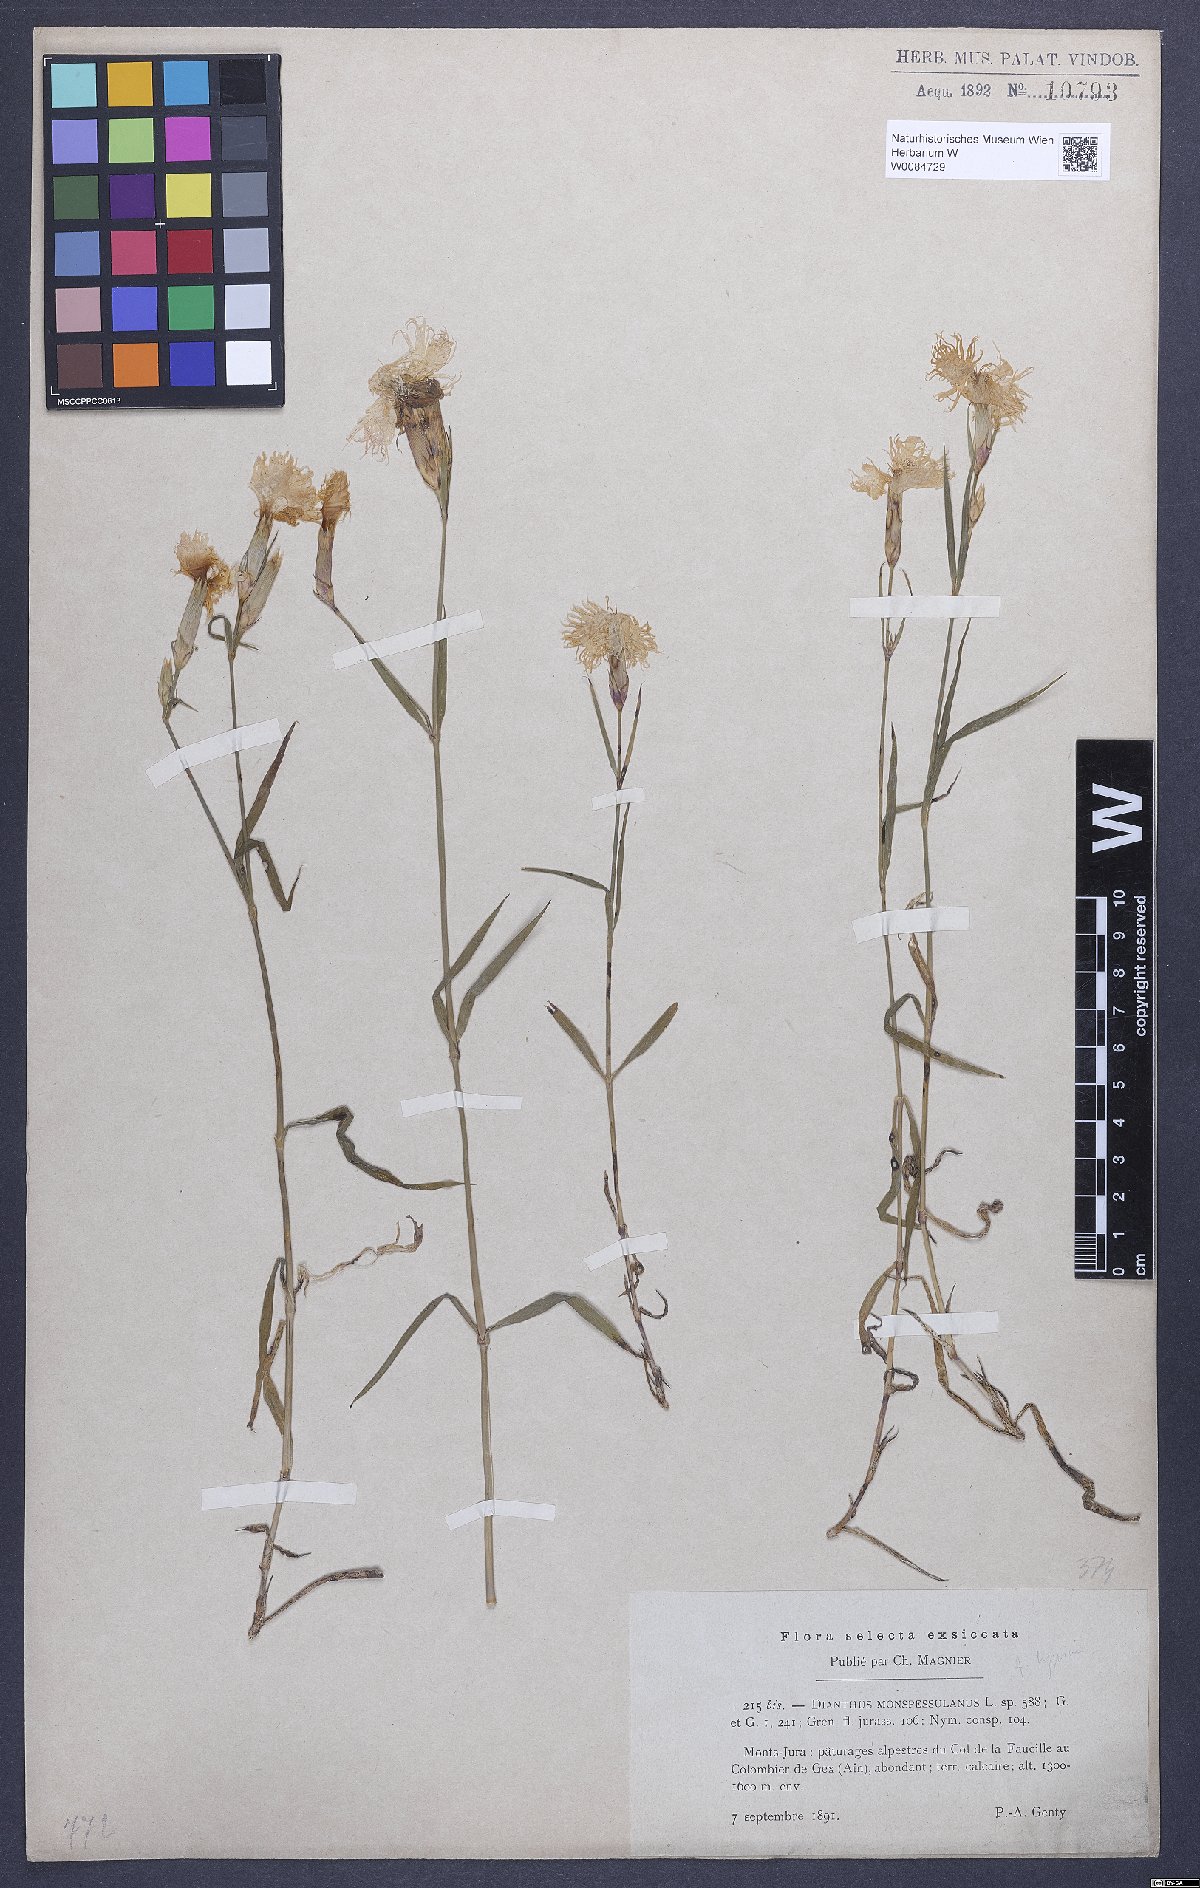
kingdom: Plantae
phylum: Tracheophyta
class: Magnoliopsida
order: Caryophyllales
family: Caryophyllaceae
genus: Dianthus
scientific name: Dianthus hyssopifolius
